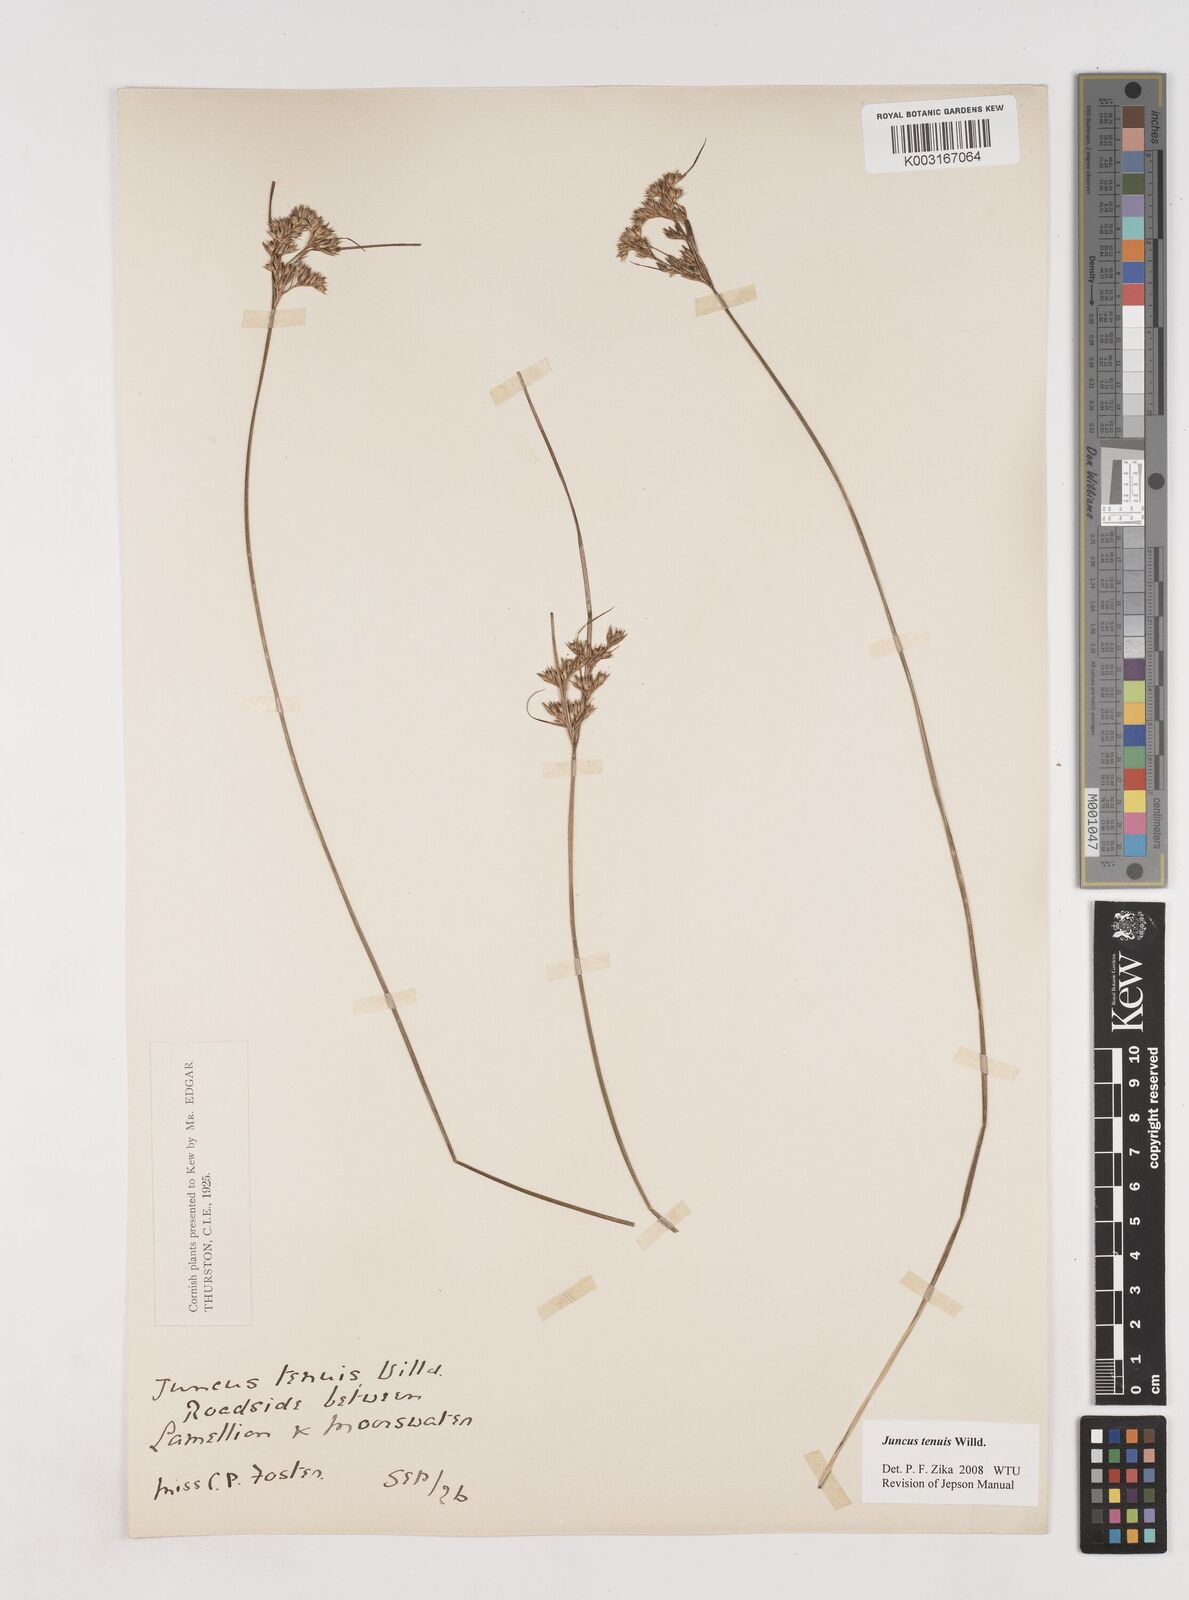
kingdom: Plantae
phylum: Tracheophyta
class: Liliopsida
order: Poales
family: Juncaceae
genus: Juncus
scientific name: Juncus tenuis
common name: Slender rush
